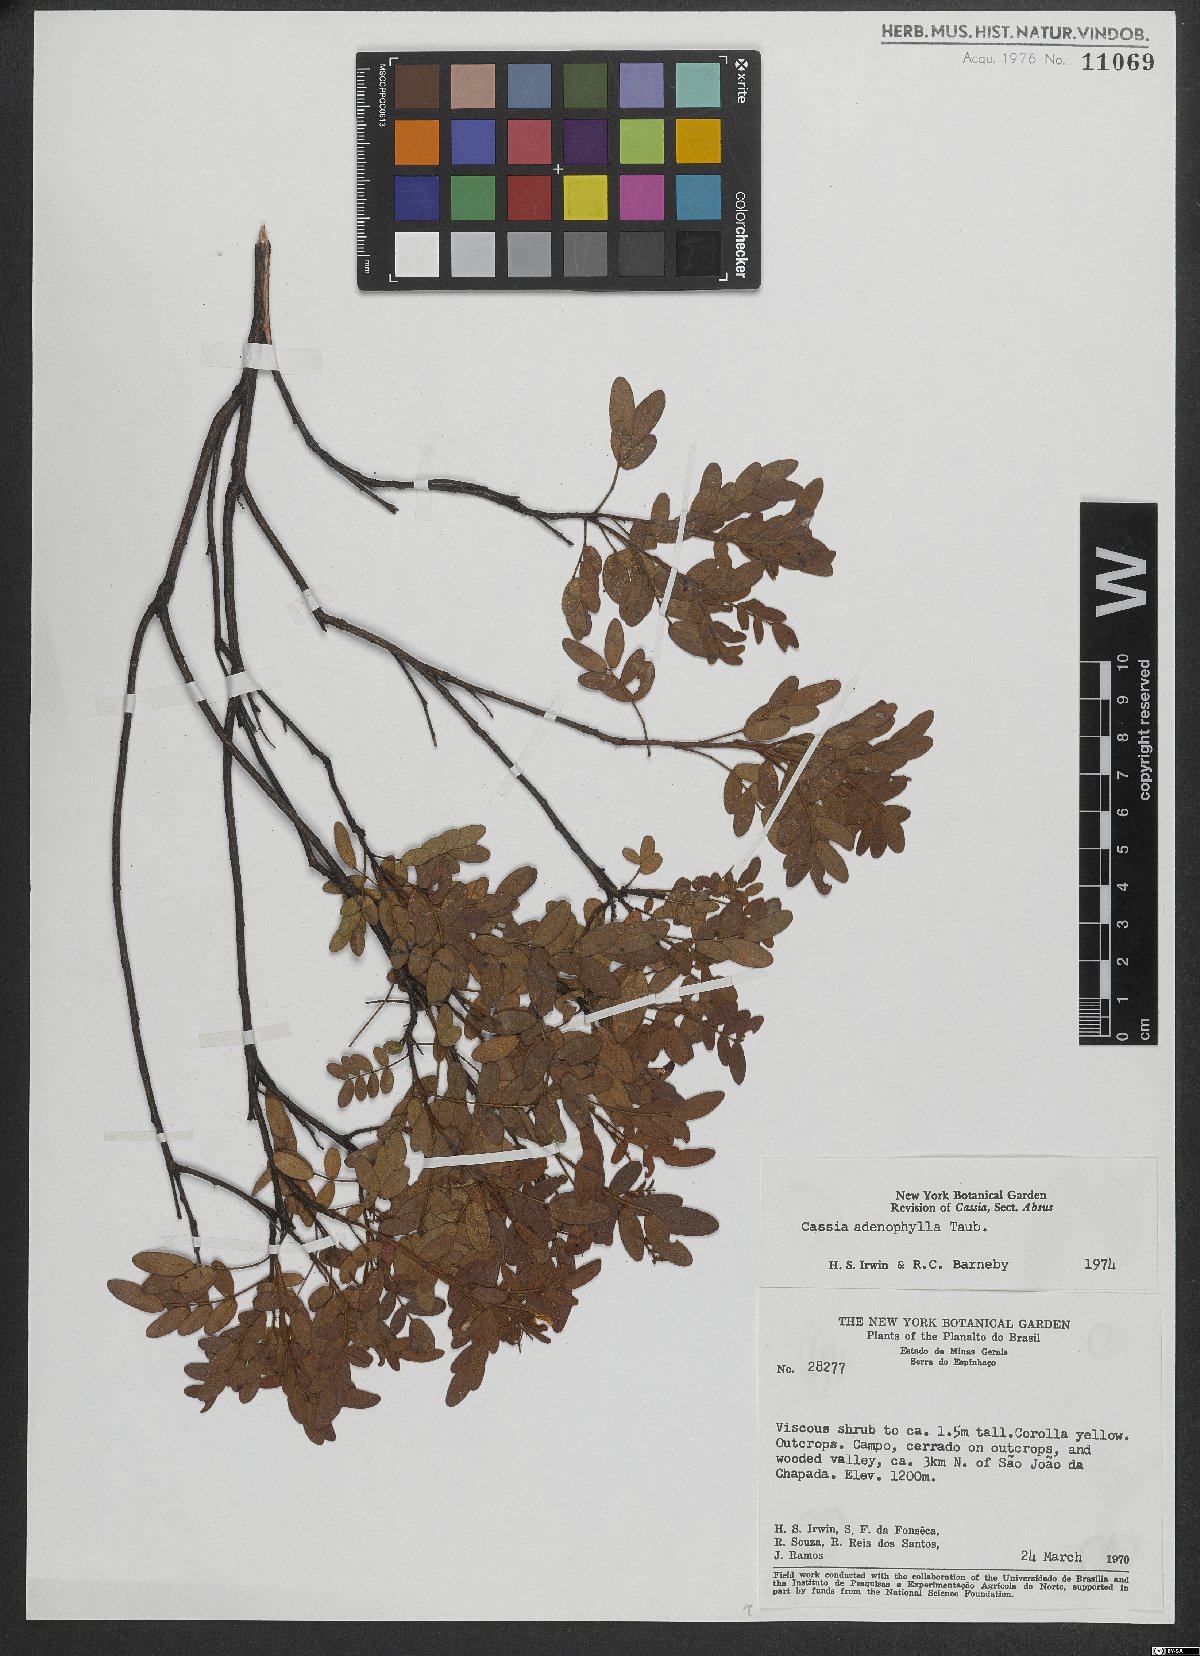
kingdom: Plantae
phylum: Tracheophyta
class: Magnoliopsida
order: Fabales
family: Fabaceae
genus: Chamaecrista
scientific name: Chamaecrista adenophylla
